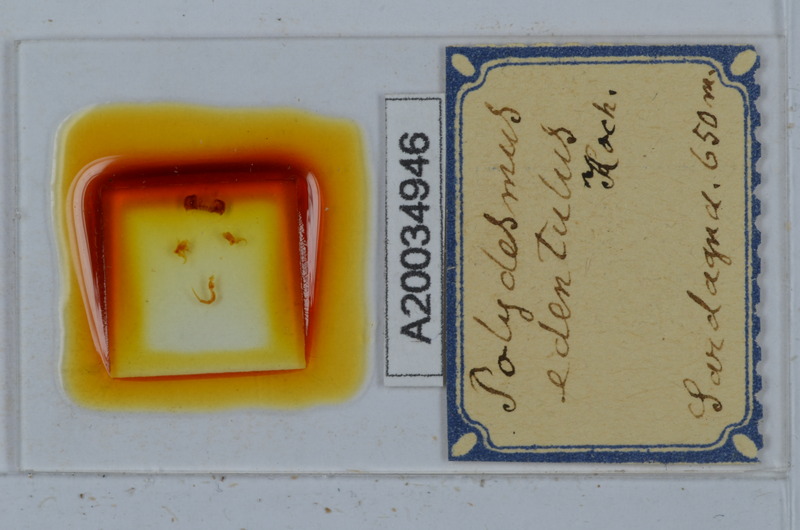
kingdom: Animalia
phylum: Arthropoda
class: Diplopoda
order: Polydesmida
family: Polydesmidae
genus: Polydesmus
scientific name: Polydesmus edentulus
